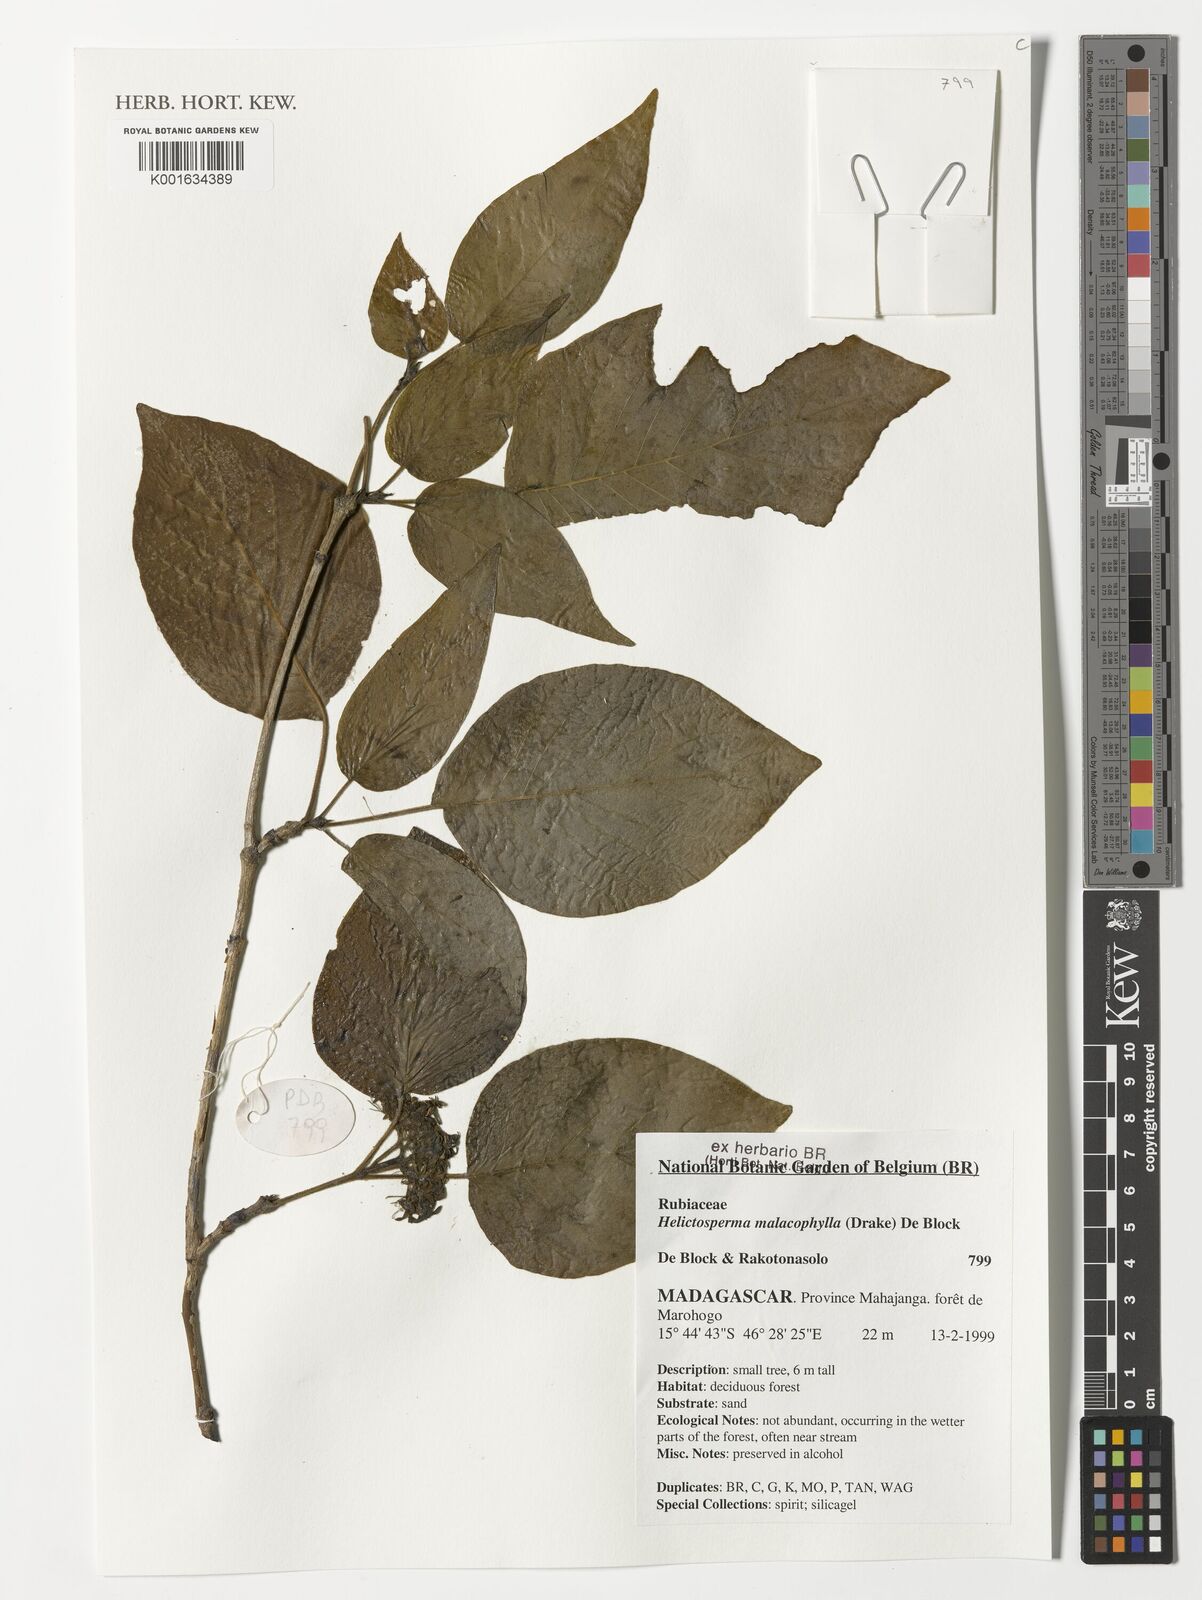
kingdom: Plantae
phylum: Tracheophyta
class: Magnoliopsida
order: Gentianales
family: Rubiaceae
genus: Helictosperma
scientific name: Helictosperma malacophyllum
